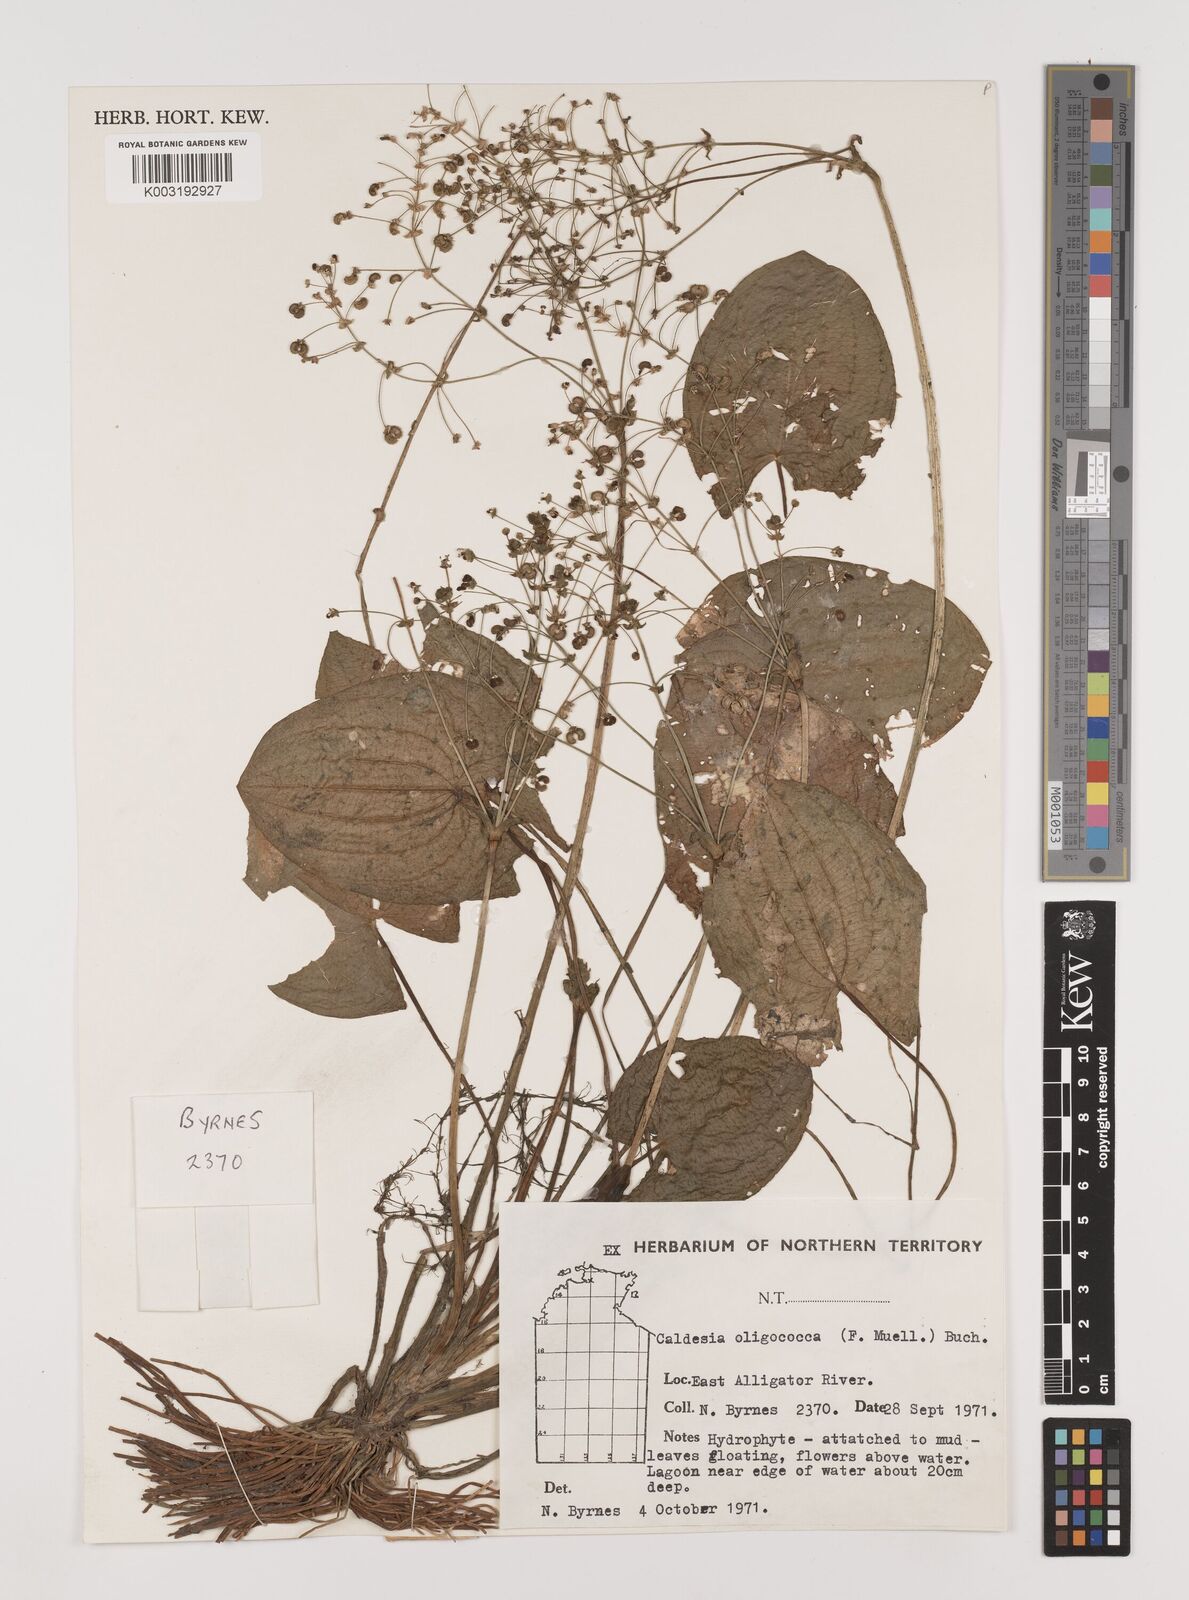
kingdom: Plantae
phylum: Tracheophyta
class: Liliopsida
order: Alismatales
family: Alismataceae
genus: Albidella
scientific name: Albidella oligococca
